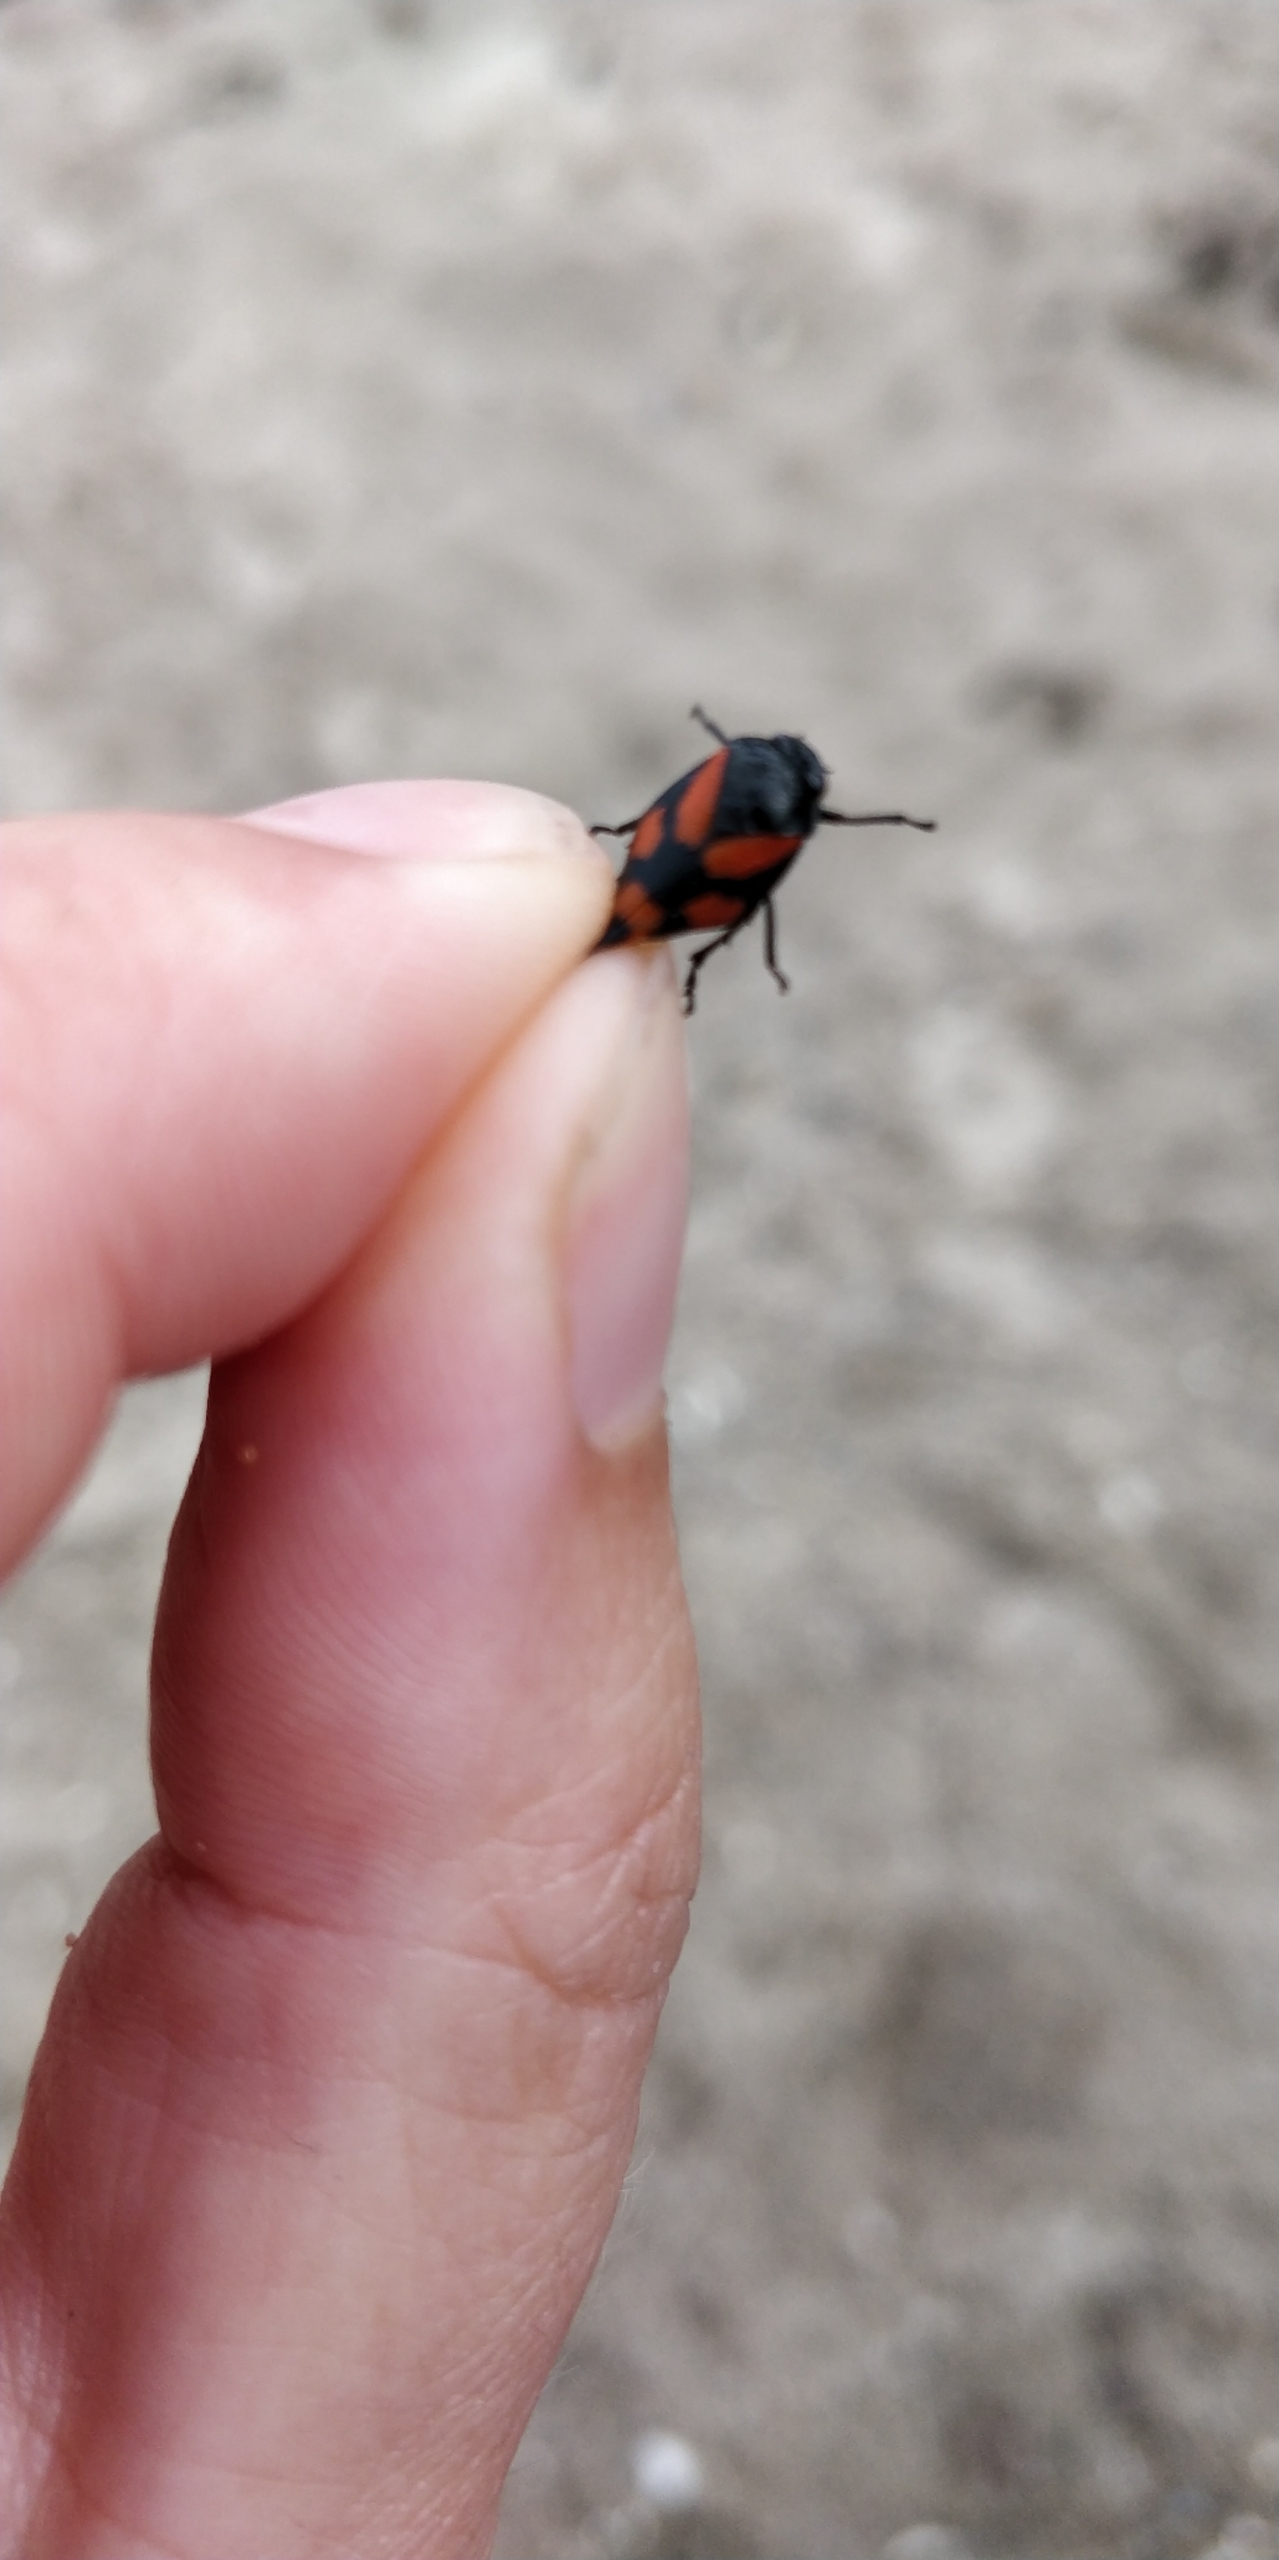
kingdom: Animalia
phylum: Arthropoda
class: Insecta
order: Hemiptera
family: Cercopidae
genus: Cercopis
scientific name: Cercopis vulnerata
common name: Blodcikade
